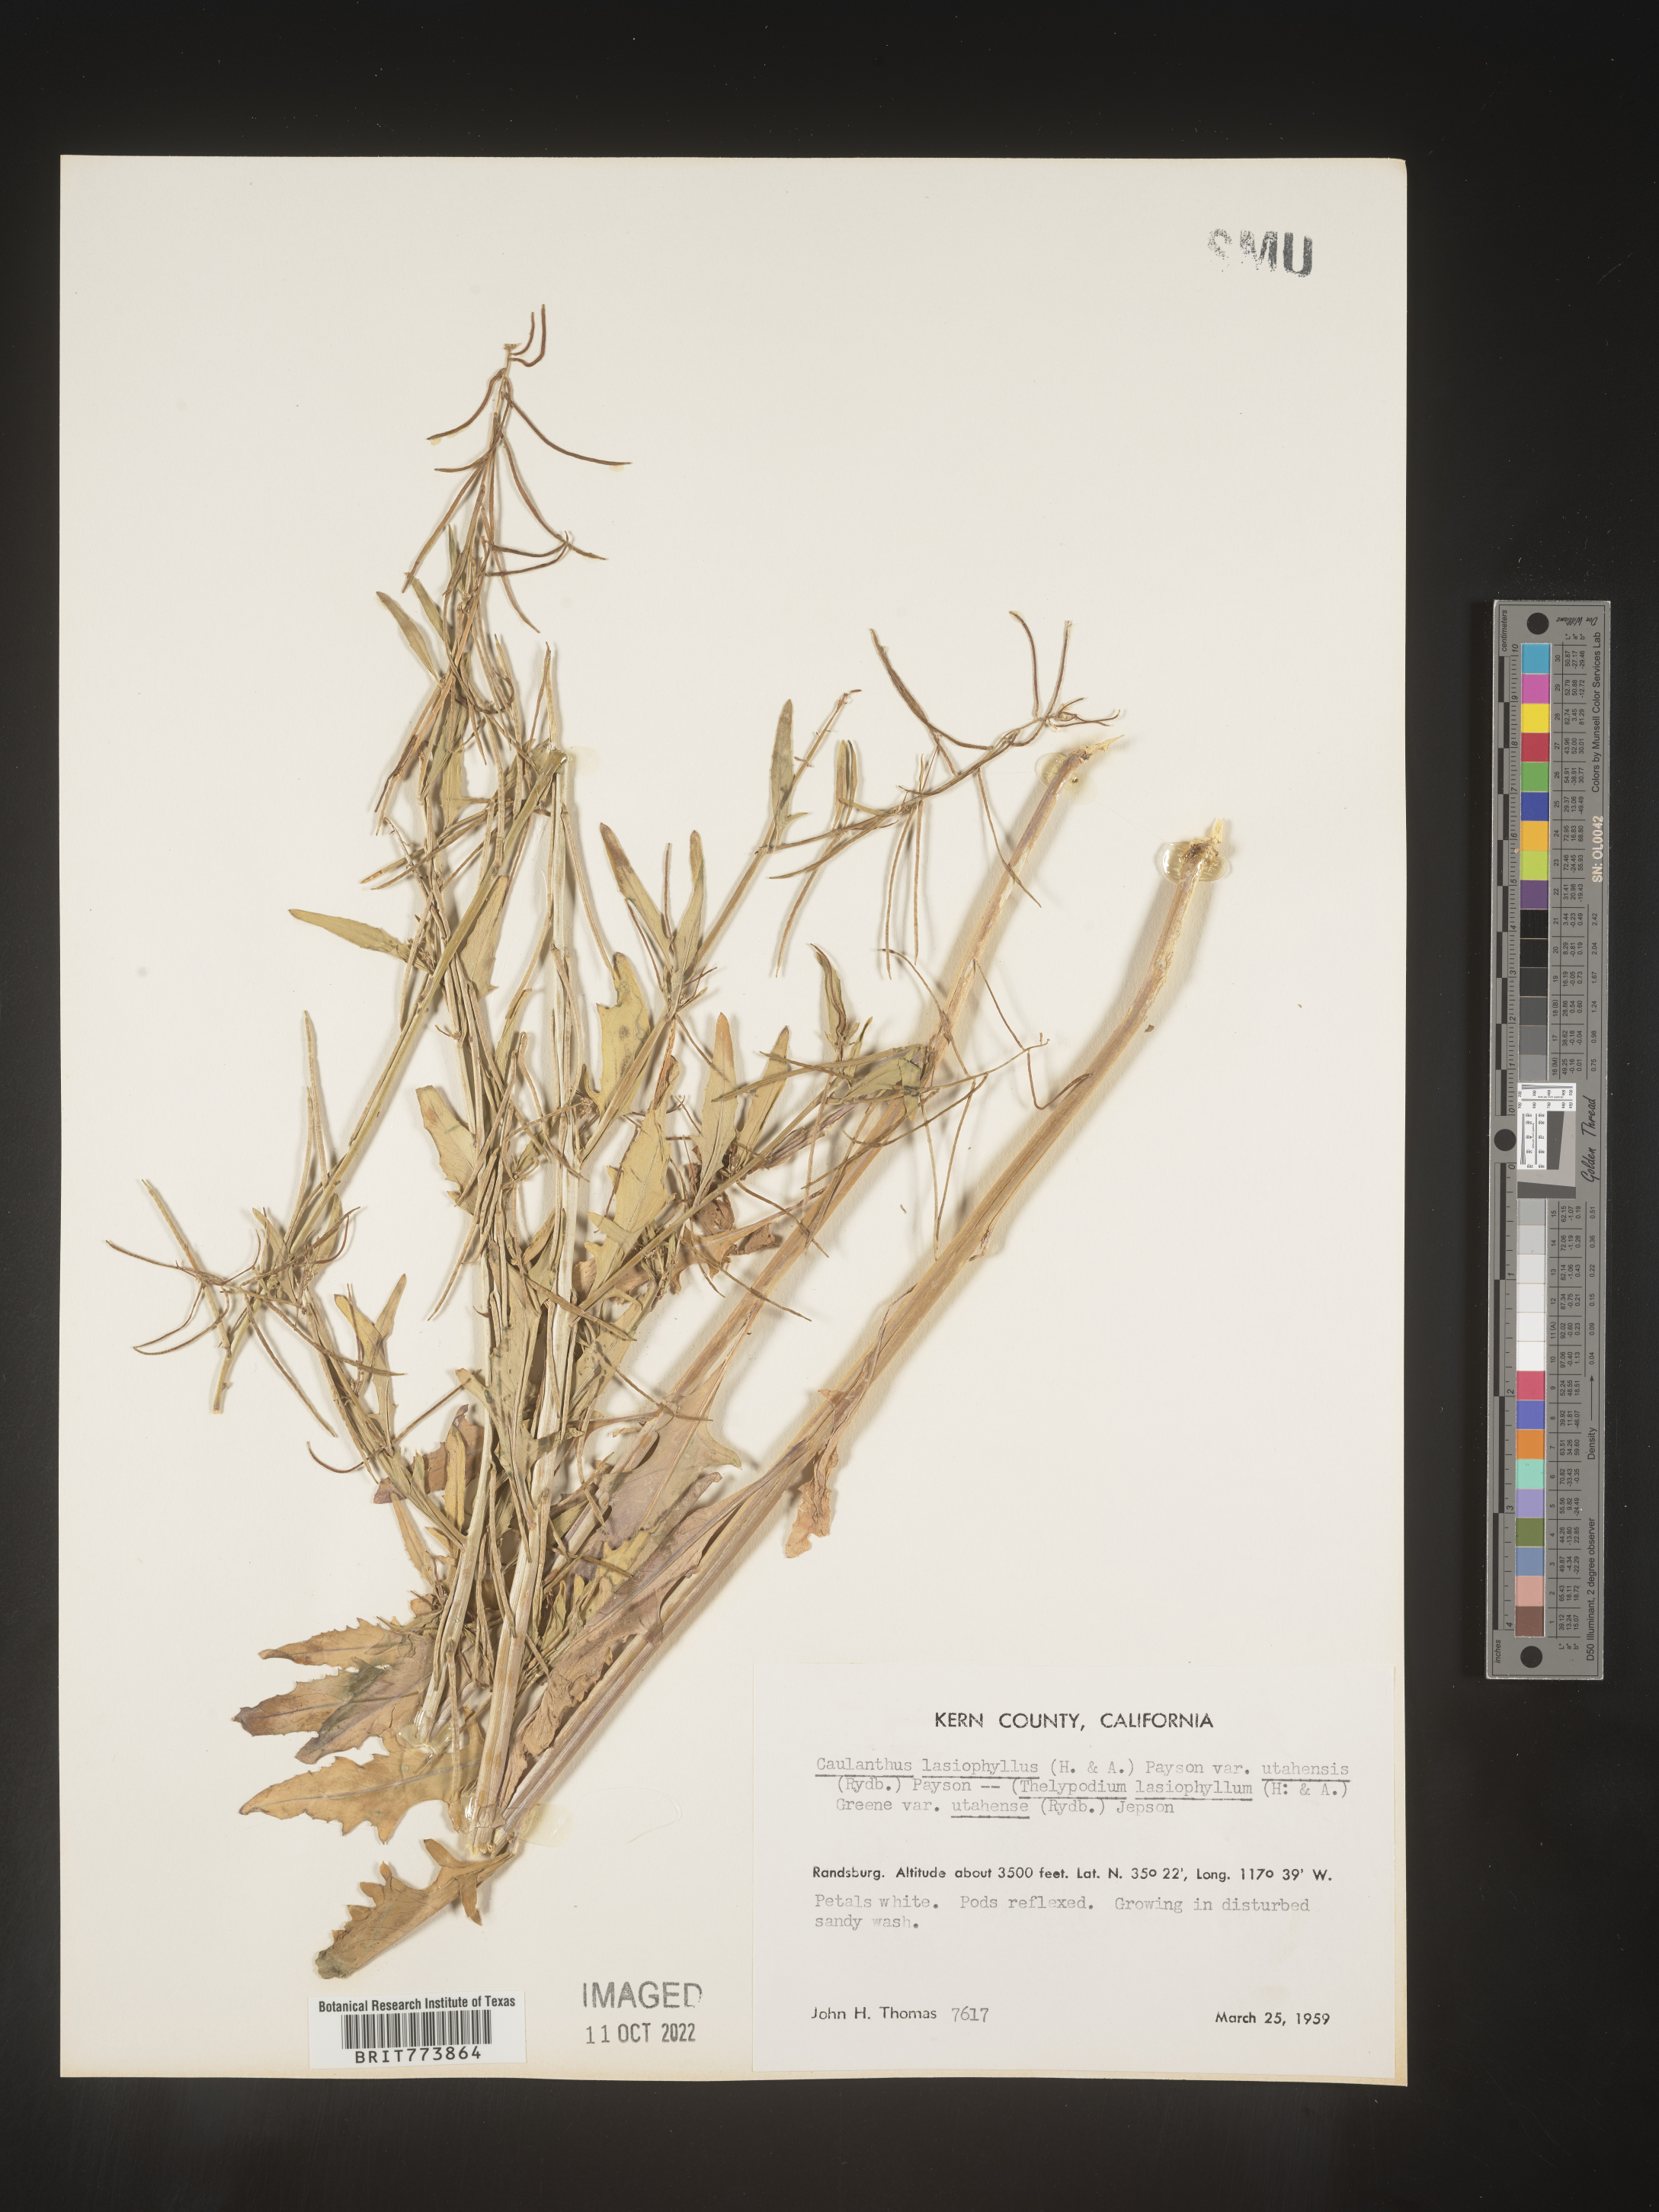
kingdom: Plantae
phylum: Tracheophyta
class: Magnoliopsida
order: Brassicales
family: Brassicaceae
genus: Streptanthus
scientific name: Streptanthus
